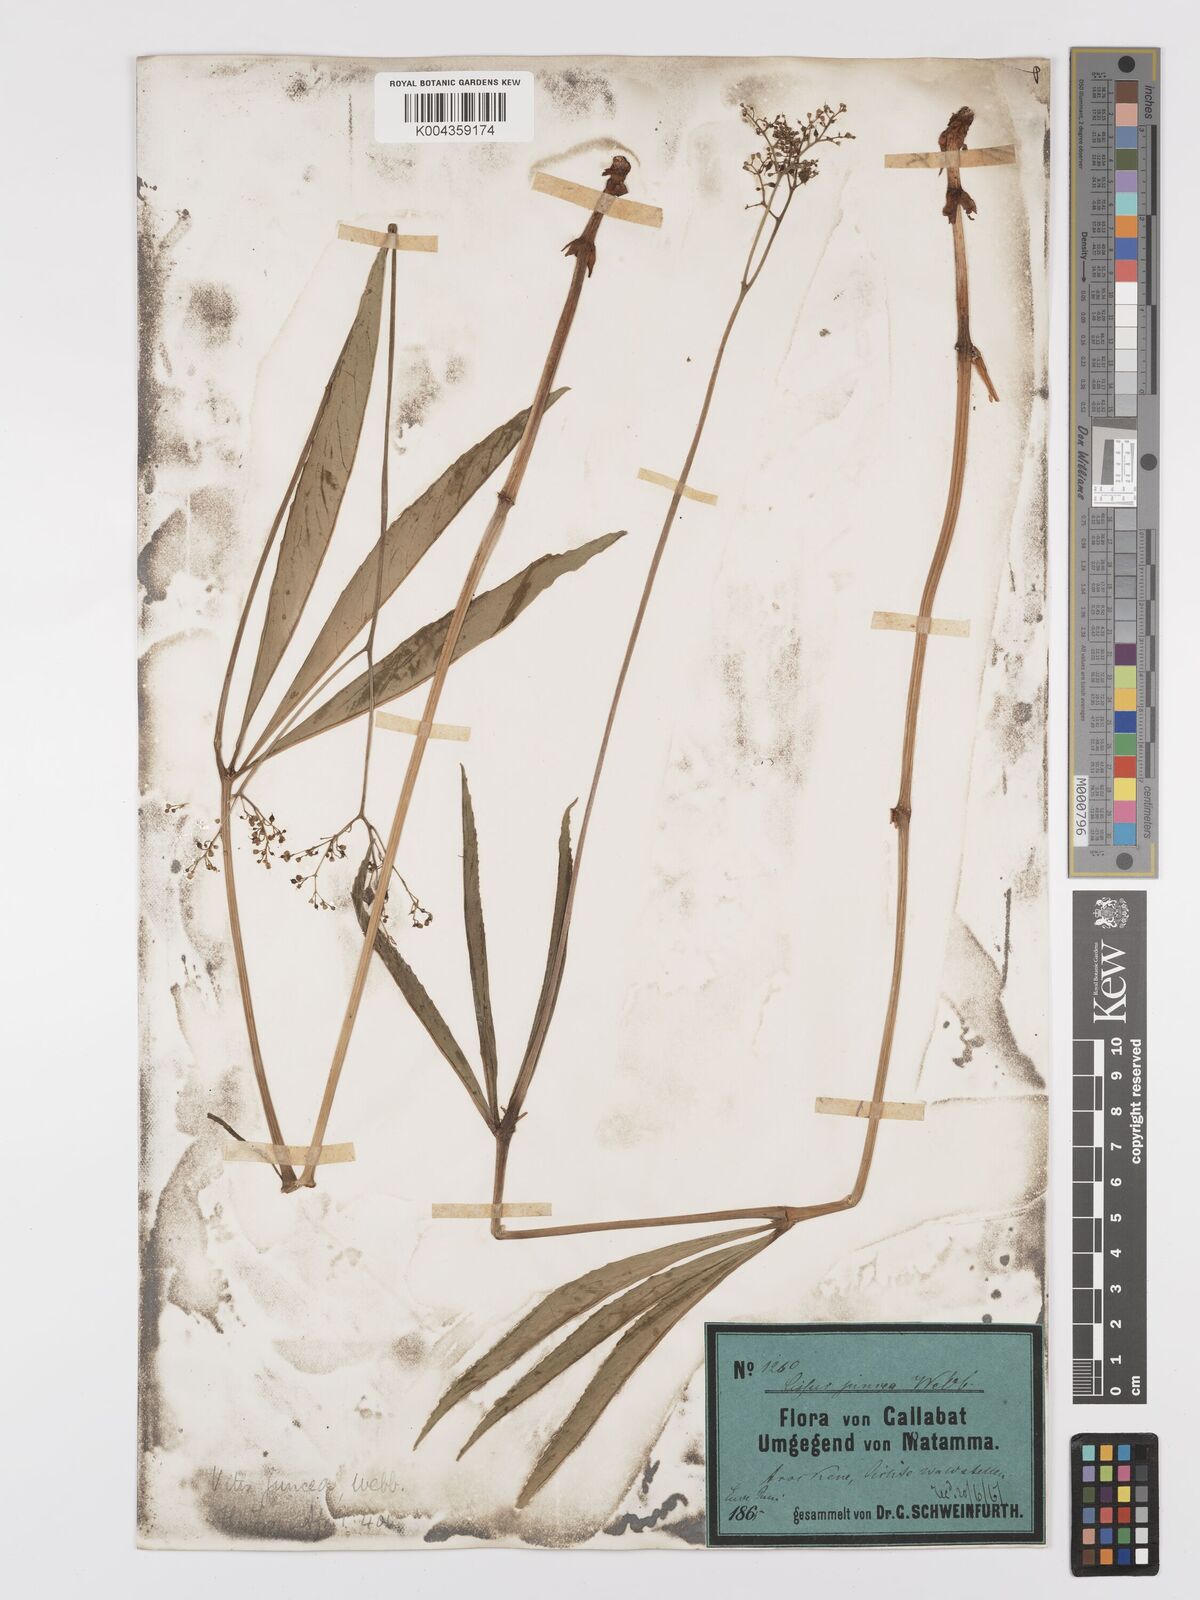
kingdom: Plantae
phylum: Tracheophyta
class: Magnoliopsida
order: Vitales
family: Vitaceae
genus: Cyphostemma
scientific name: Cyphostemma junceum
